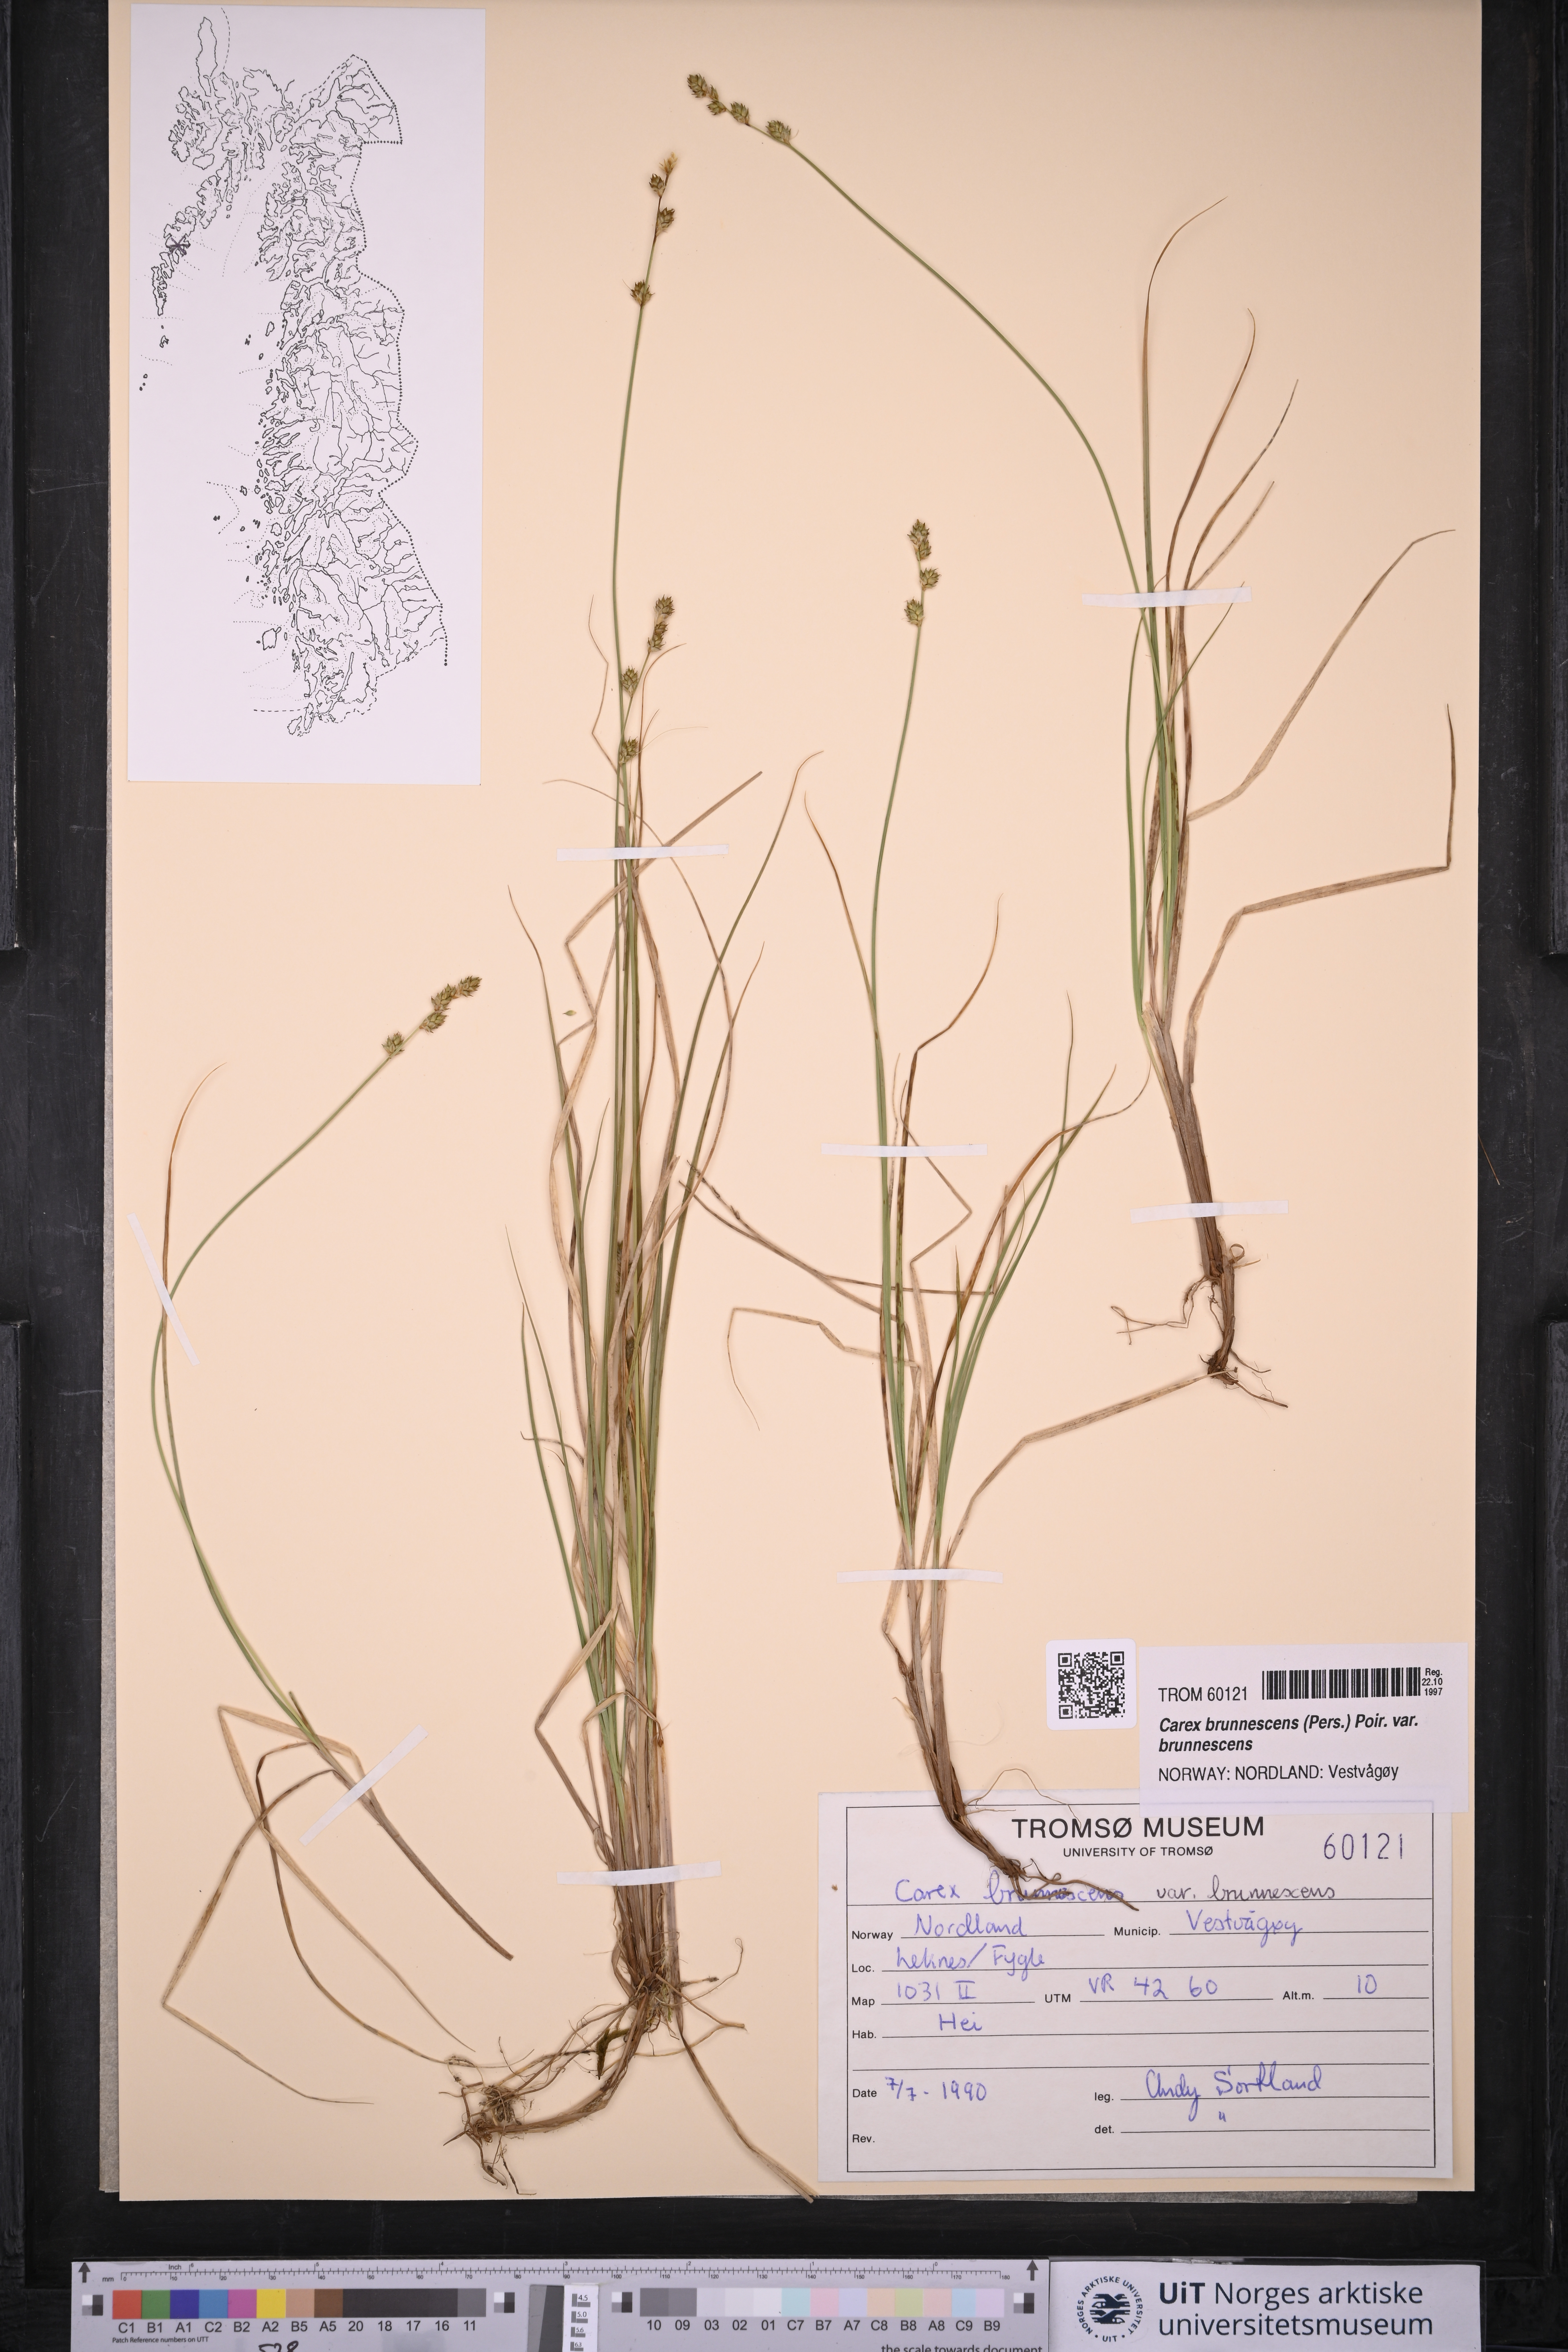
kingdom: Plantae
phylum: Tracheophyta
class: Liliopsida
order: Poales
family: Cyperaceae
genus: Carex
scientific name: Carex brunnescens
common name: Brown sedge
